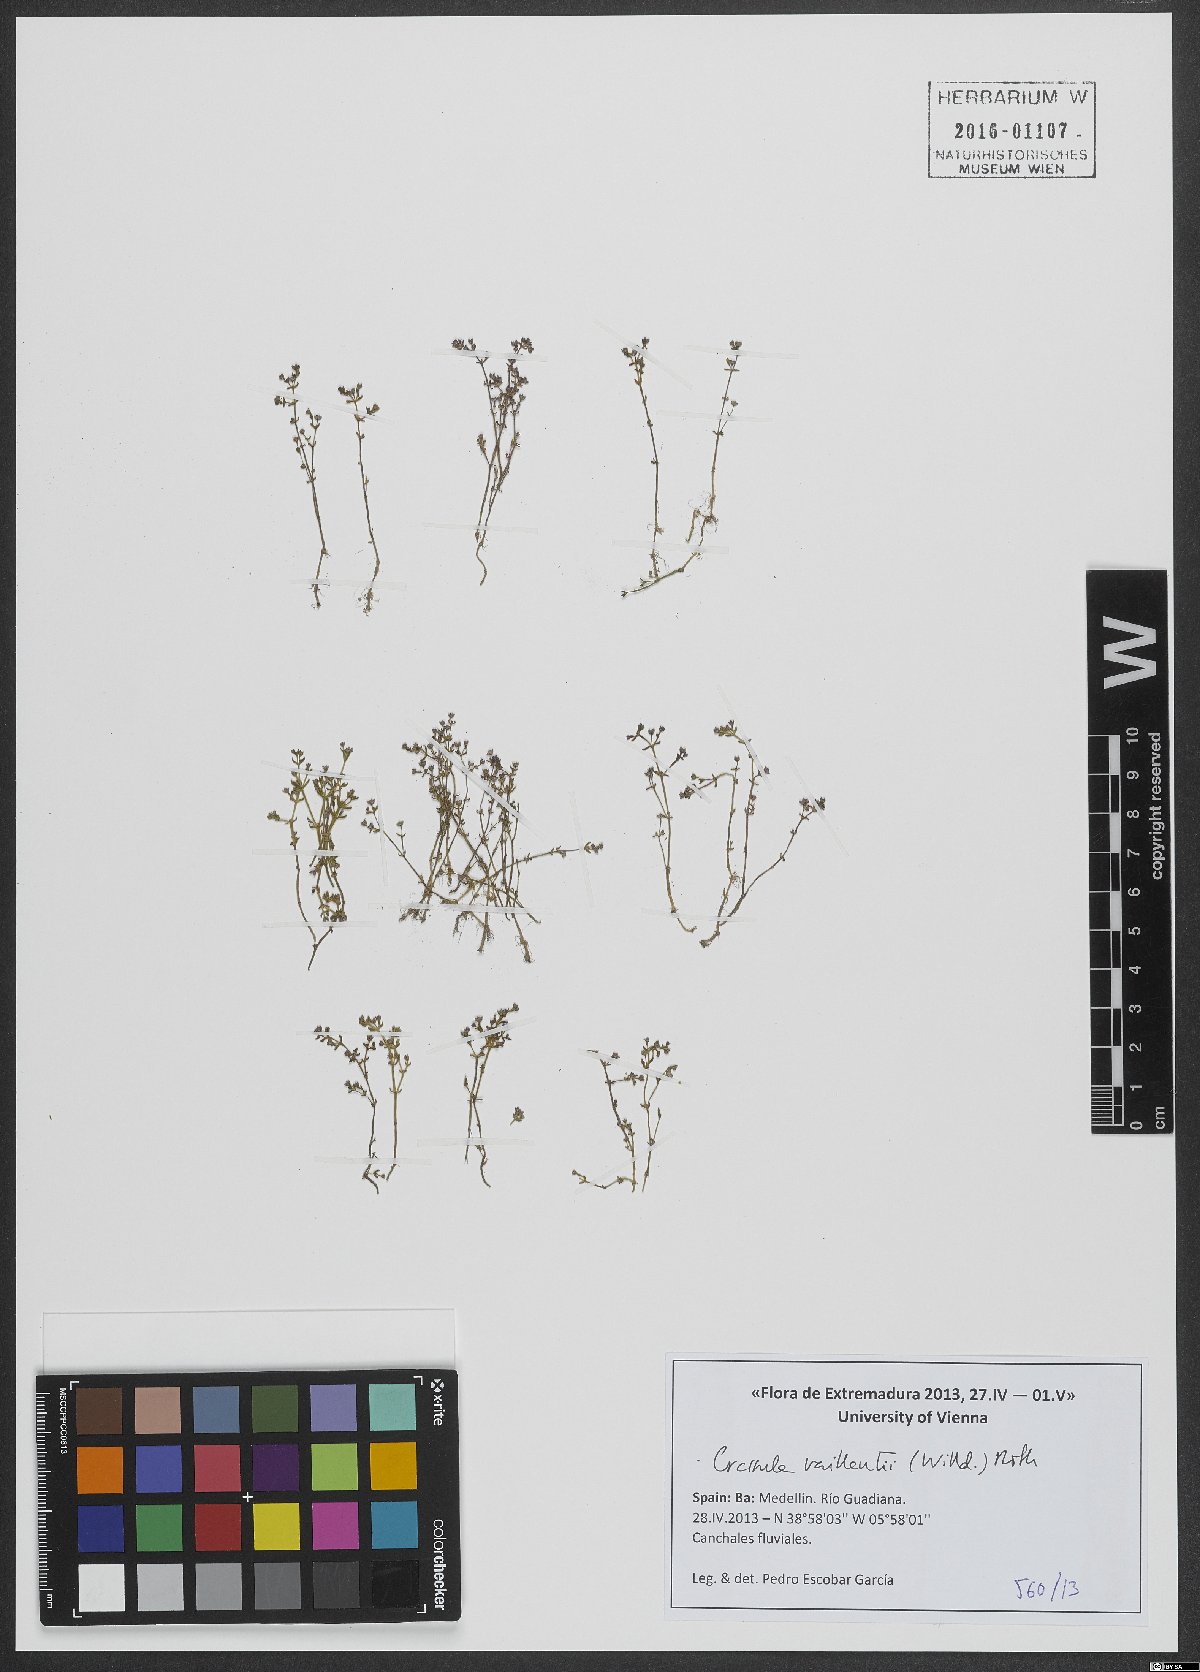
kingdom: Plantae
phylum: Tracheophyta
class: Magnoliopsida
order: Saxifragales
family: Crassulaceae
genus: Crassula
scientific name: Crassula vaillantii
